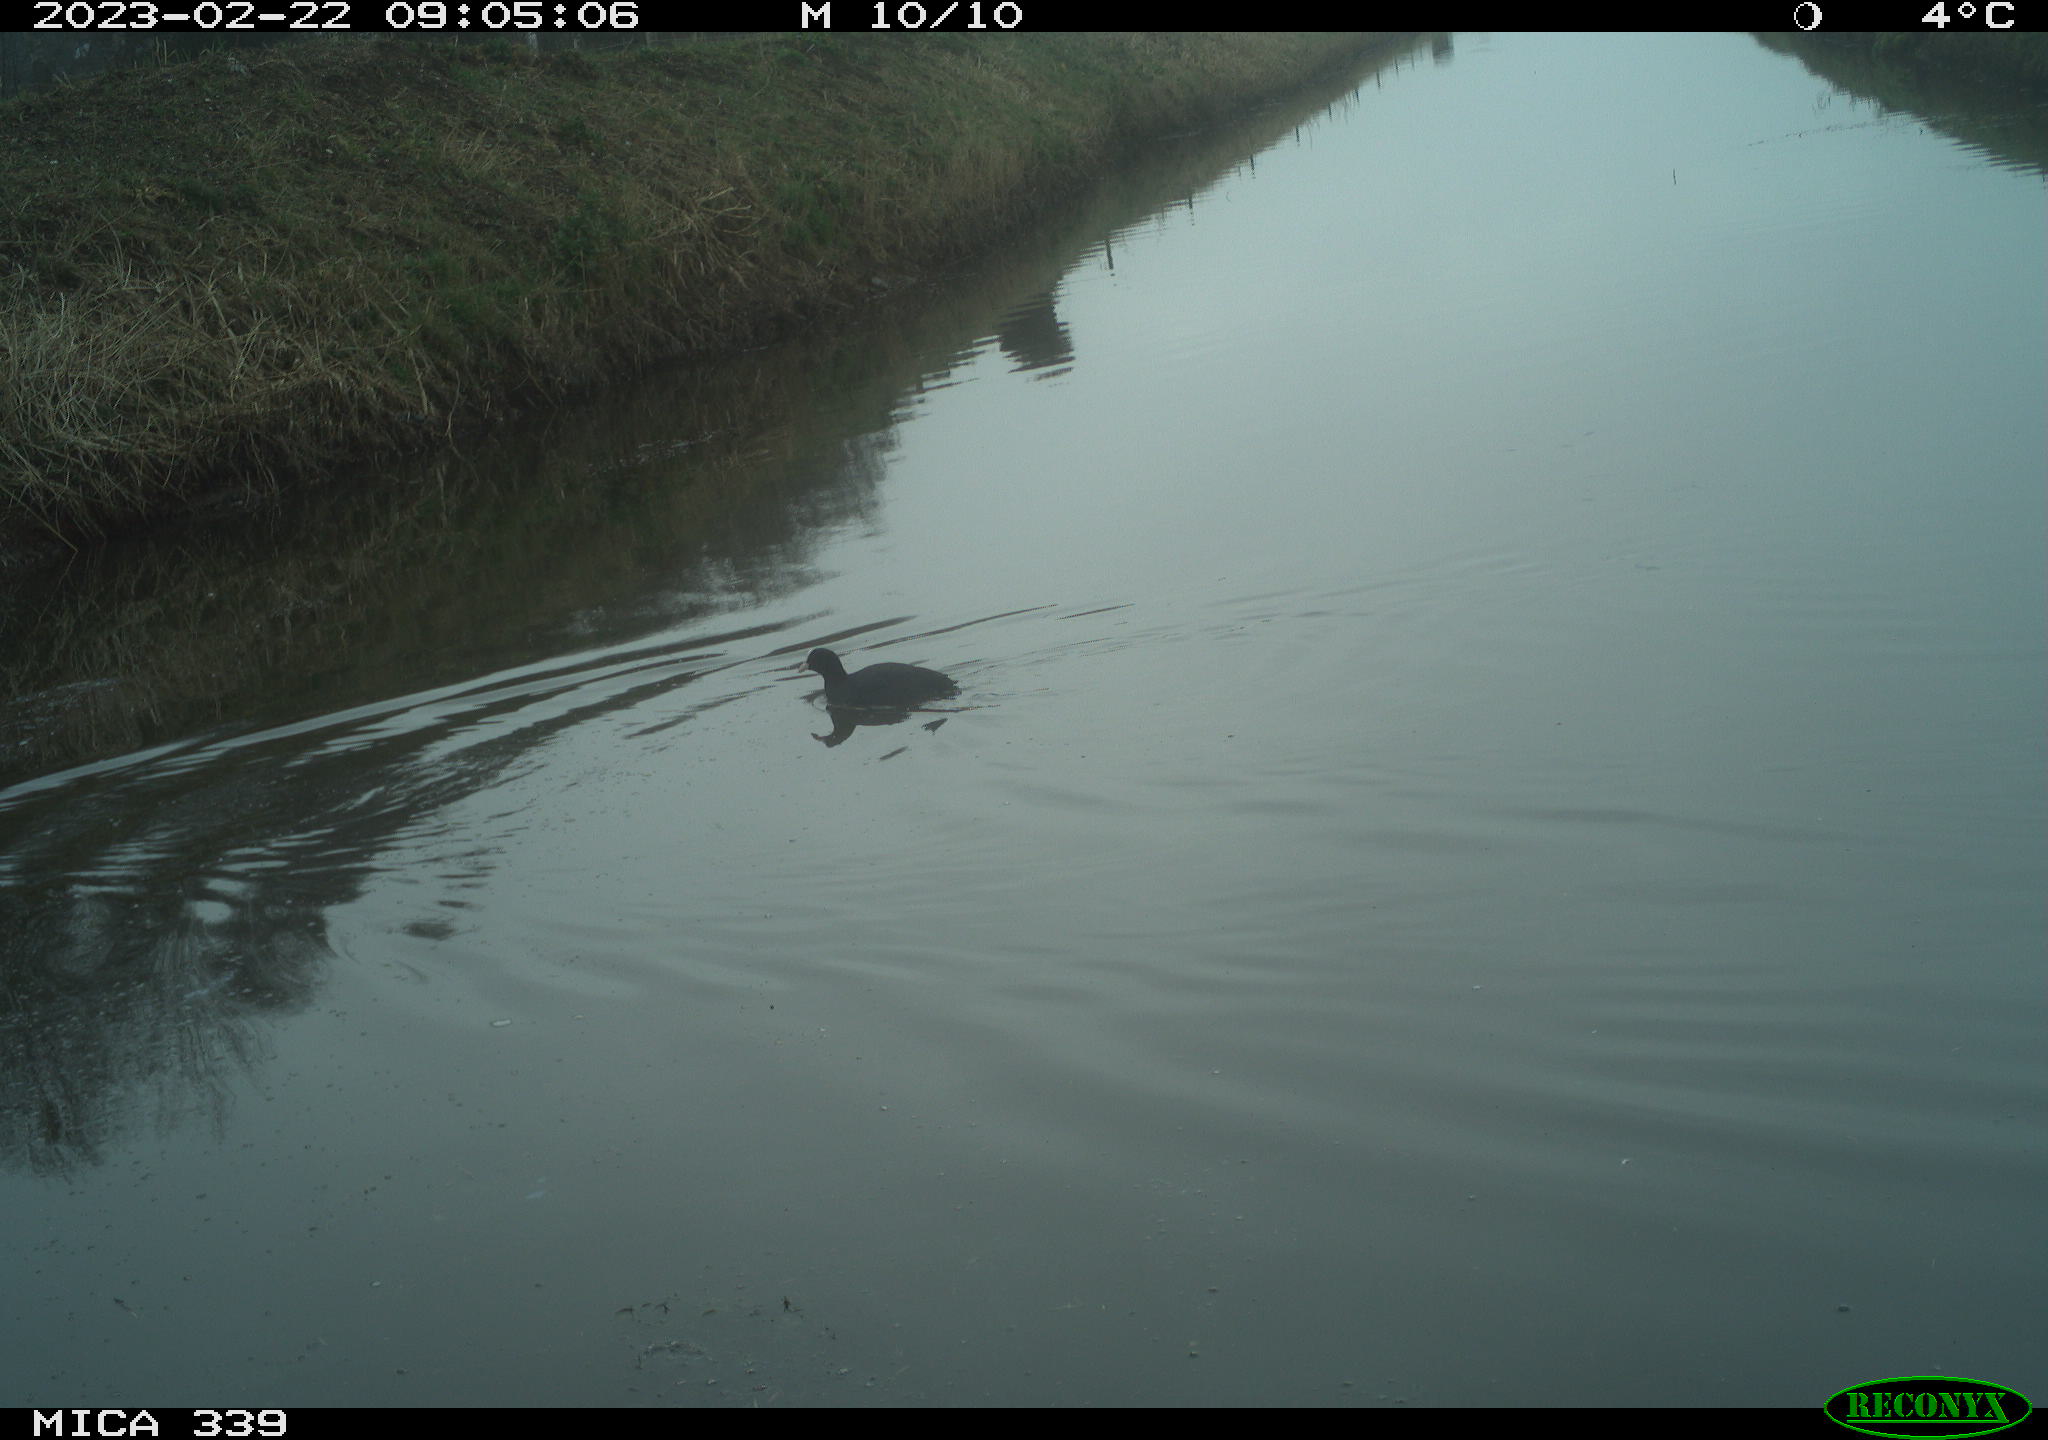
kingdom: Animalia
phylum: Chordata
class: Aves
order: Anseriformes
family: Anatidae
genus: Anas
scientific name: Anas
